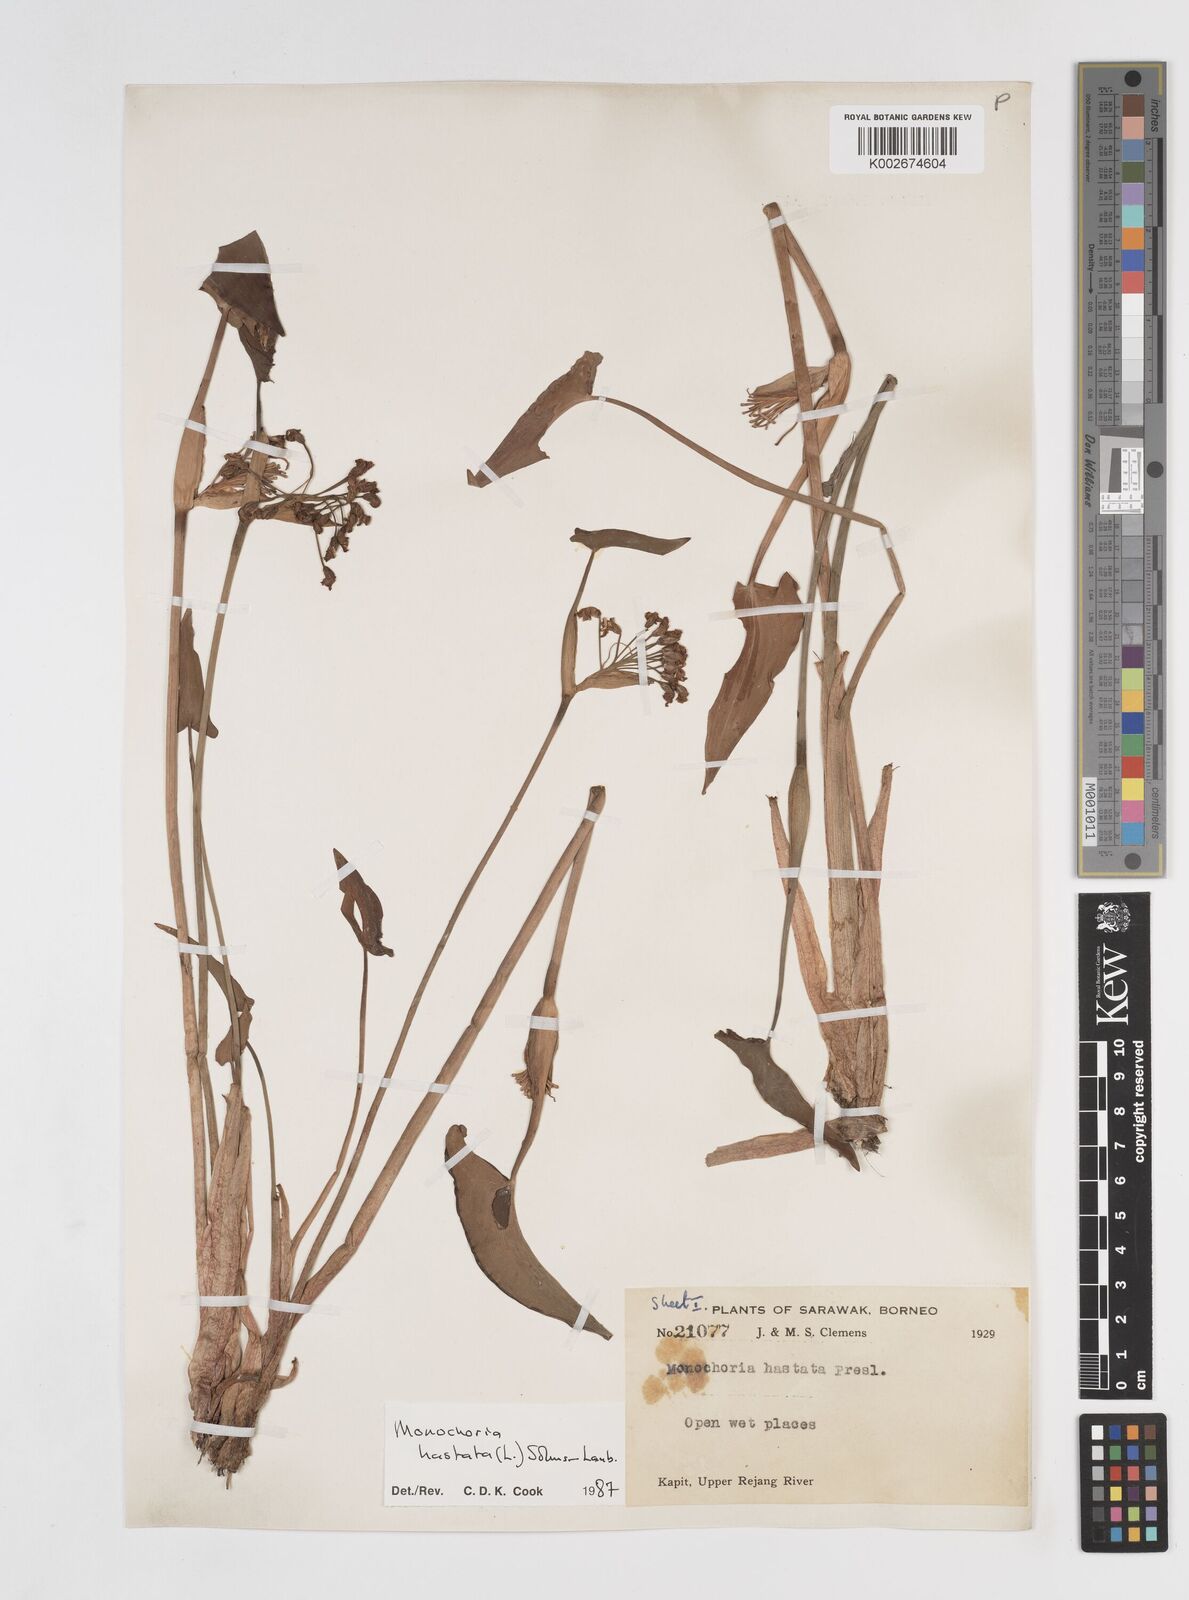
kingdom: Plantae
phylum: Tracheophyta
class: Liliopsida
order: Commelinales
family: Pontederiaceae
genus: Pontederia
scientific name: Pontederia hastata
